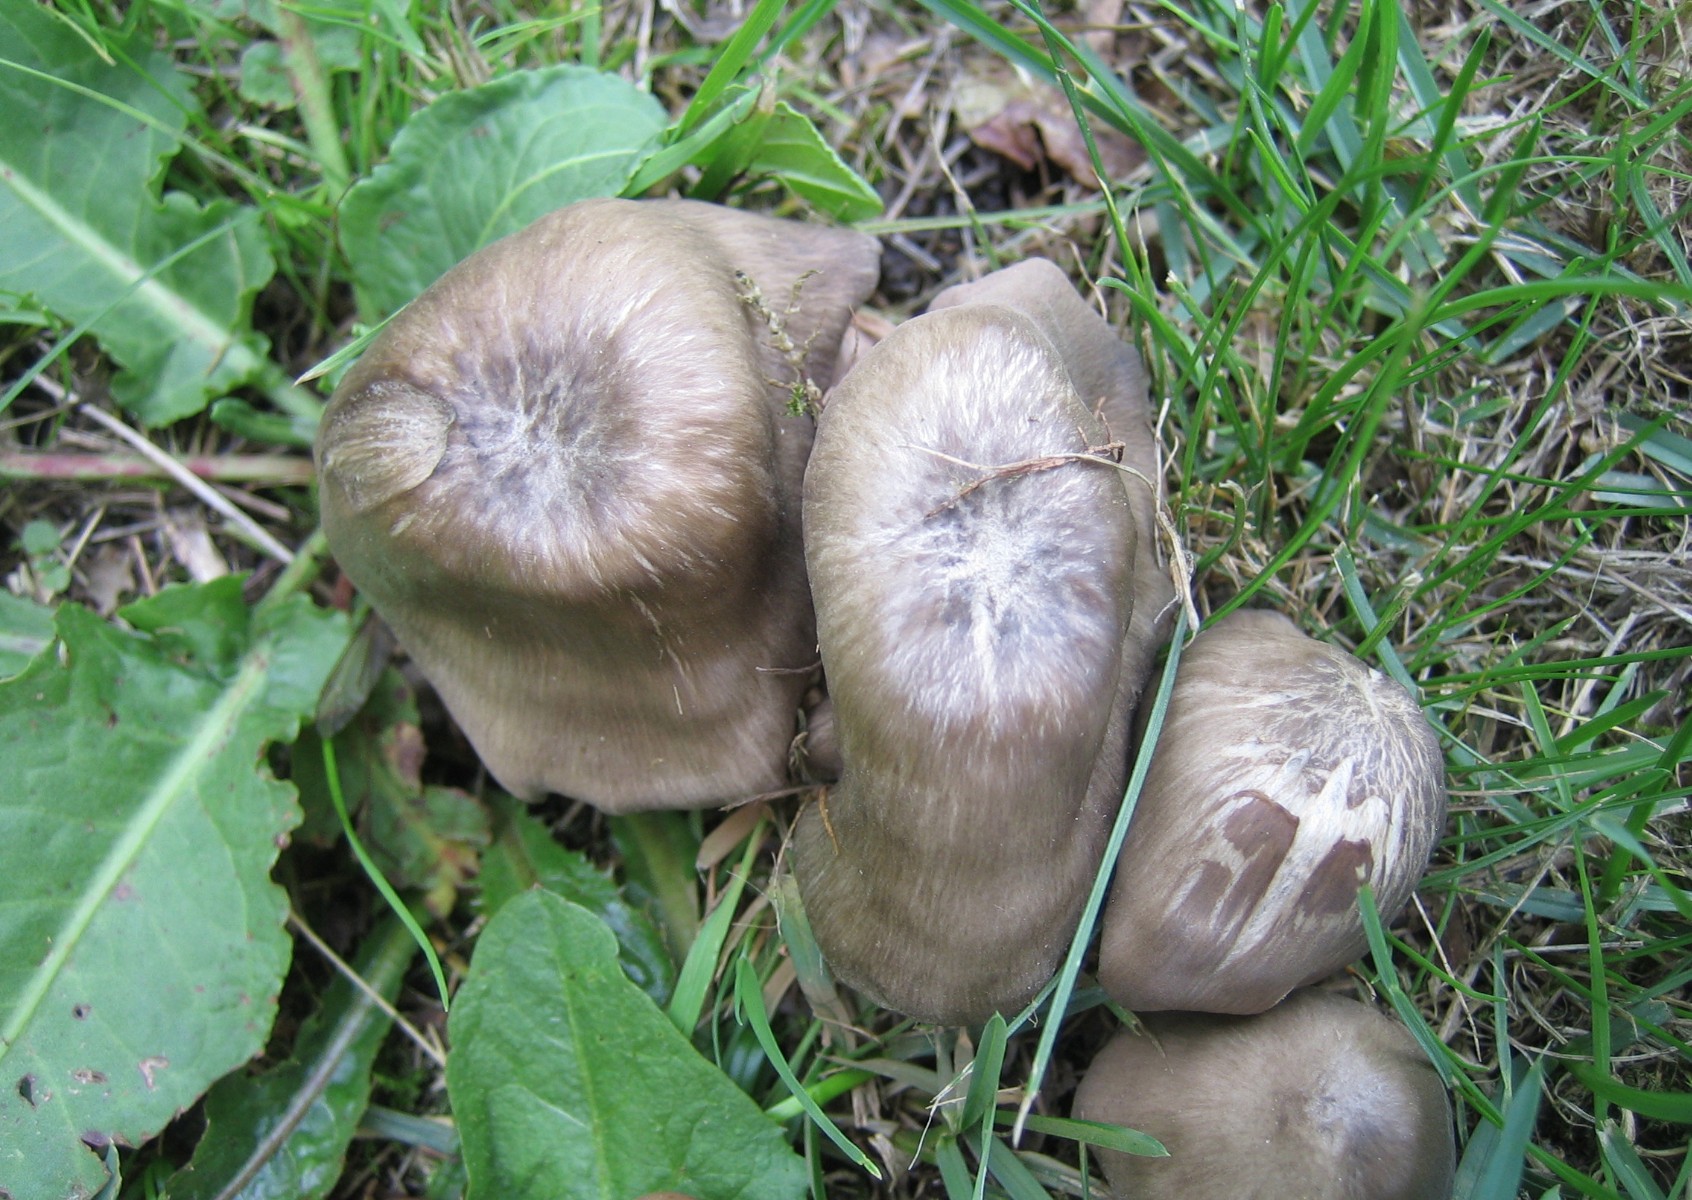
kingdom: Fungi
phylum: Basidiomycota
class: Agaricomycetes
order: Agaricales
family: Entolomataceae
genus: Entoloma
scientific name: Entoloma
